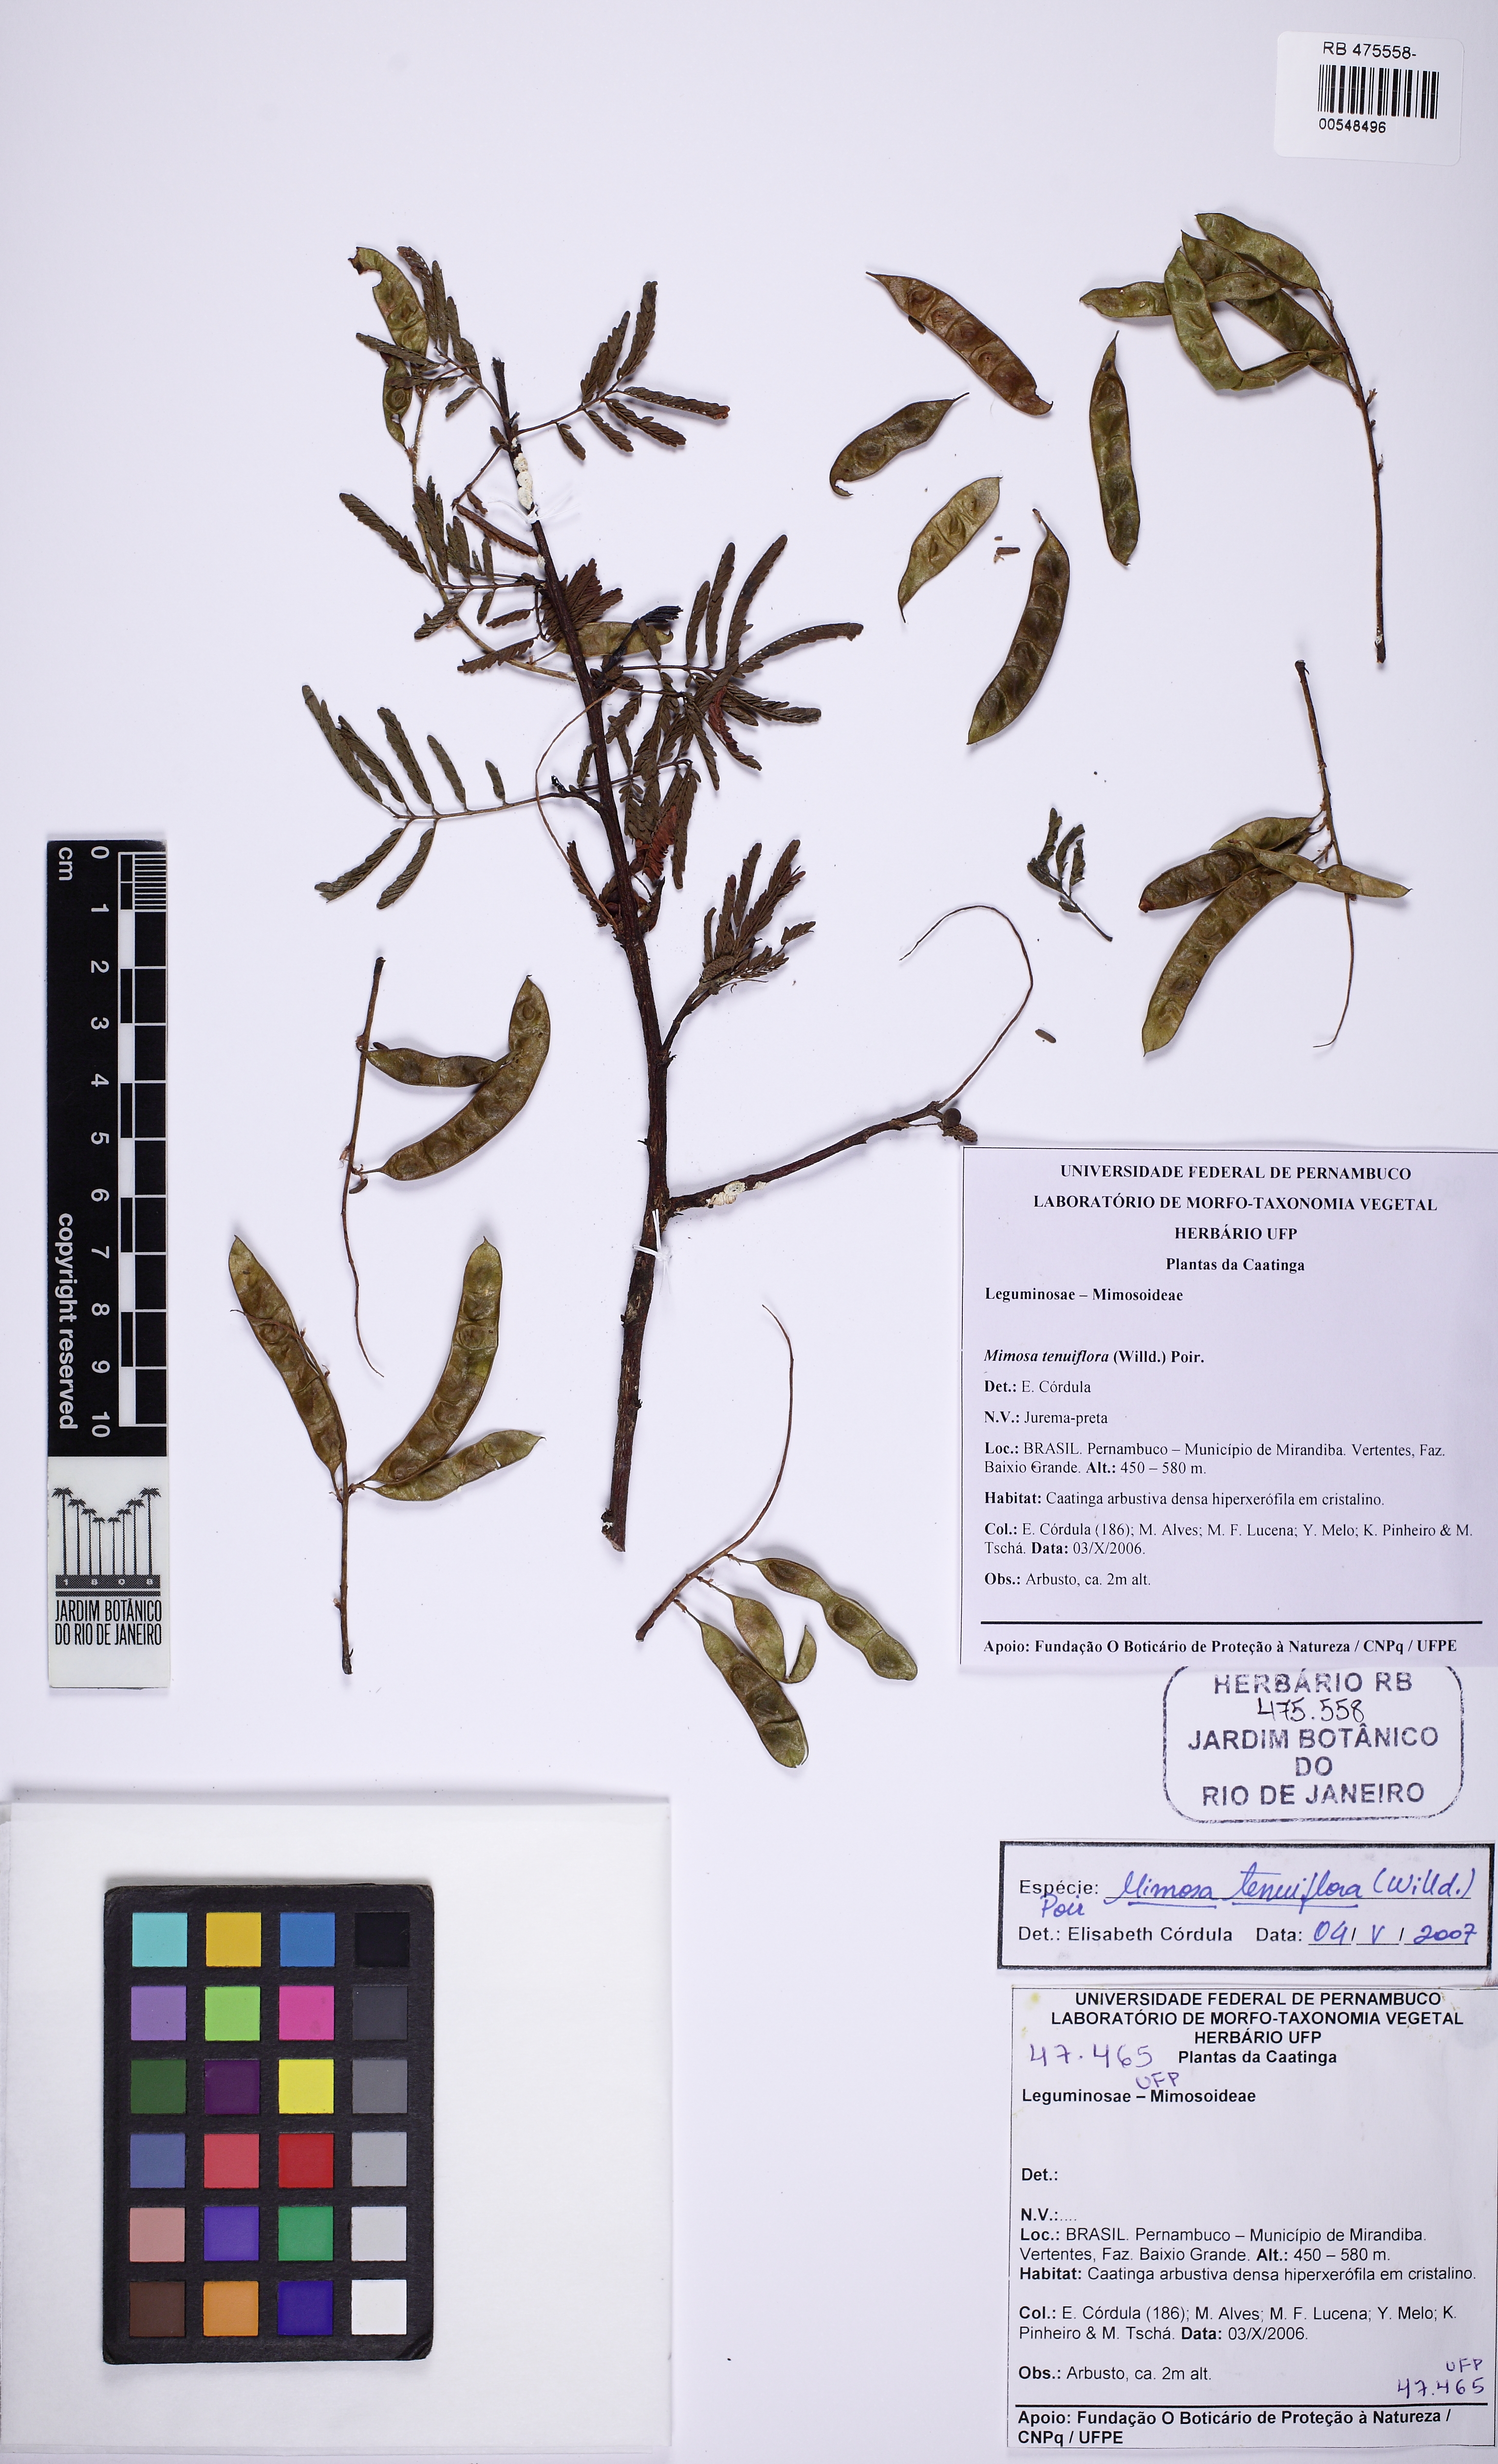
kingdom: Plantae
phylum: Tracheophyta
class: Magnoliopsida
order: Fabales
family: Fabaceae
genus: Mimosa
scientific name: Mimosa tenuiflora
